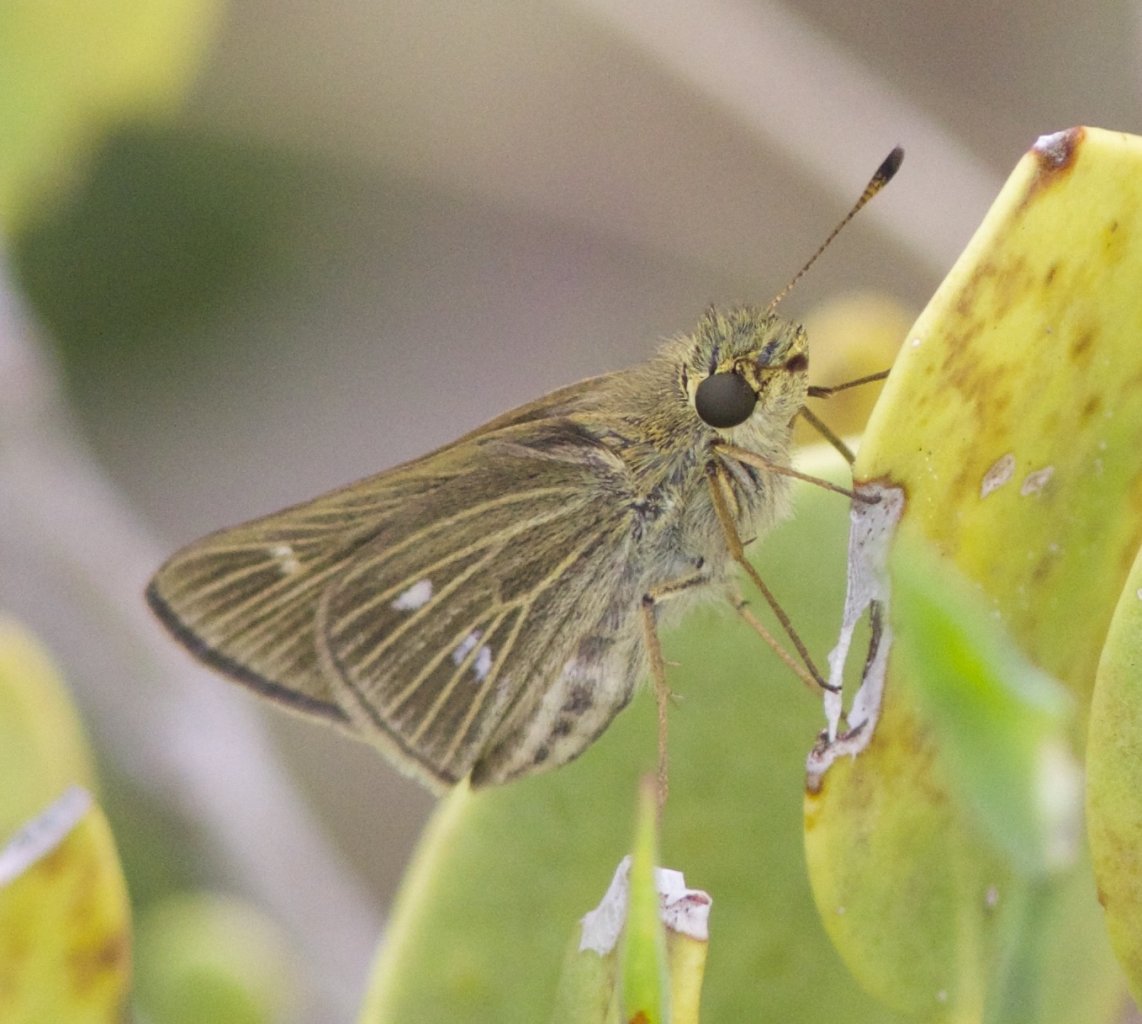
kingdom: Animalia
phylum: Arthropoda
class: Insecta
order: Lepidoptera
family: Hesperiidae
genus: Panoquina
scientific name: Panoquina panoquinoides
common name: Obscure Skipper
